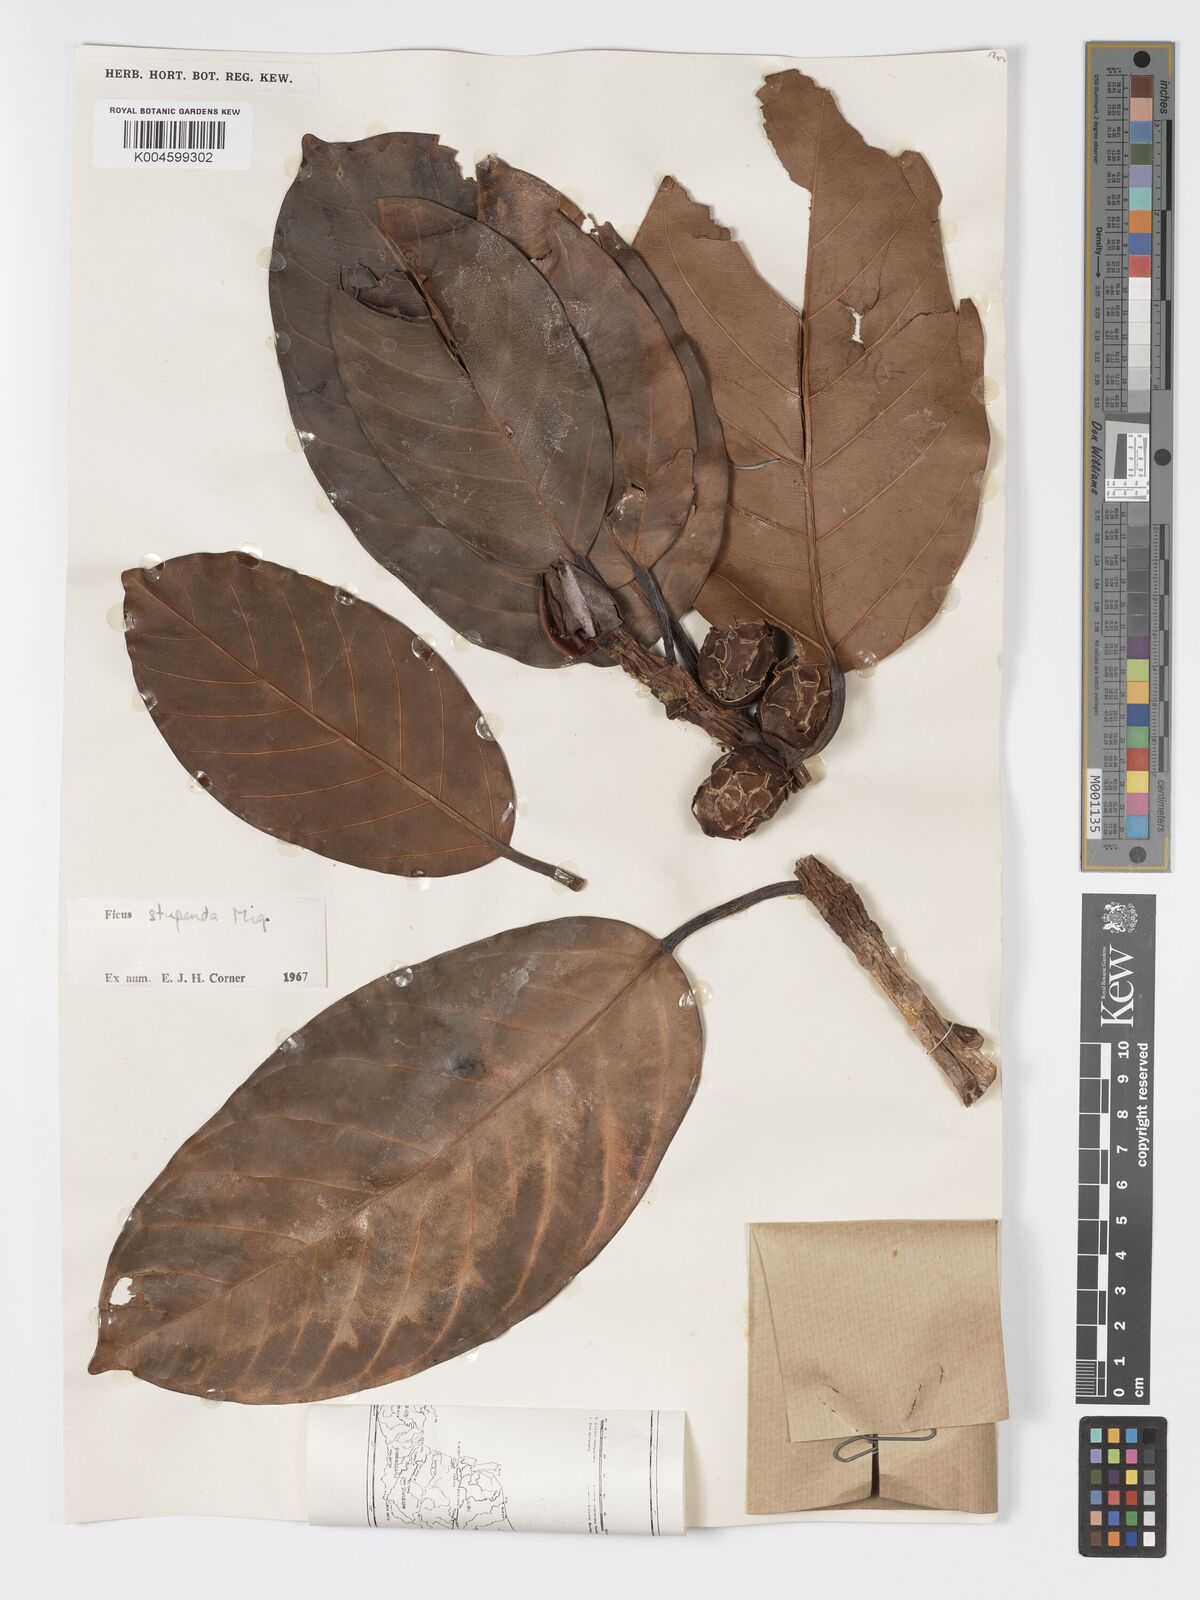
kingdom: Plantae
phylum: Tracheophyta
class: Magnoliopsida
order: Rosales
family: Moraceae
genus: Ficus
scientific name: Ficus crassiramea
